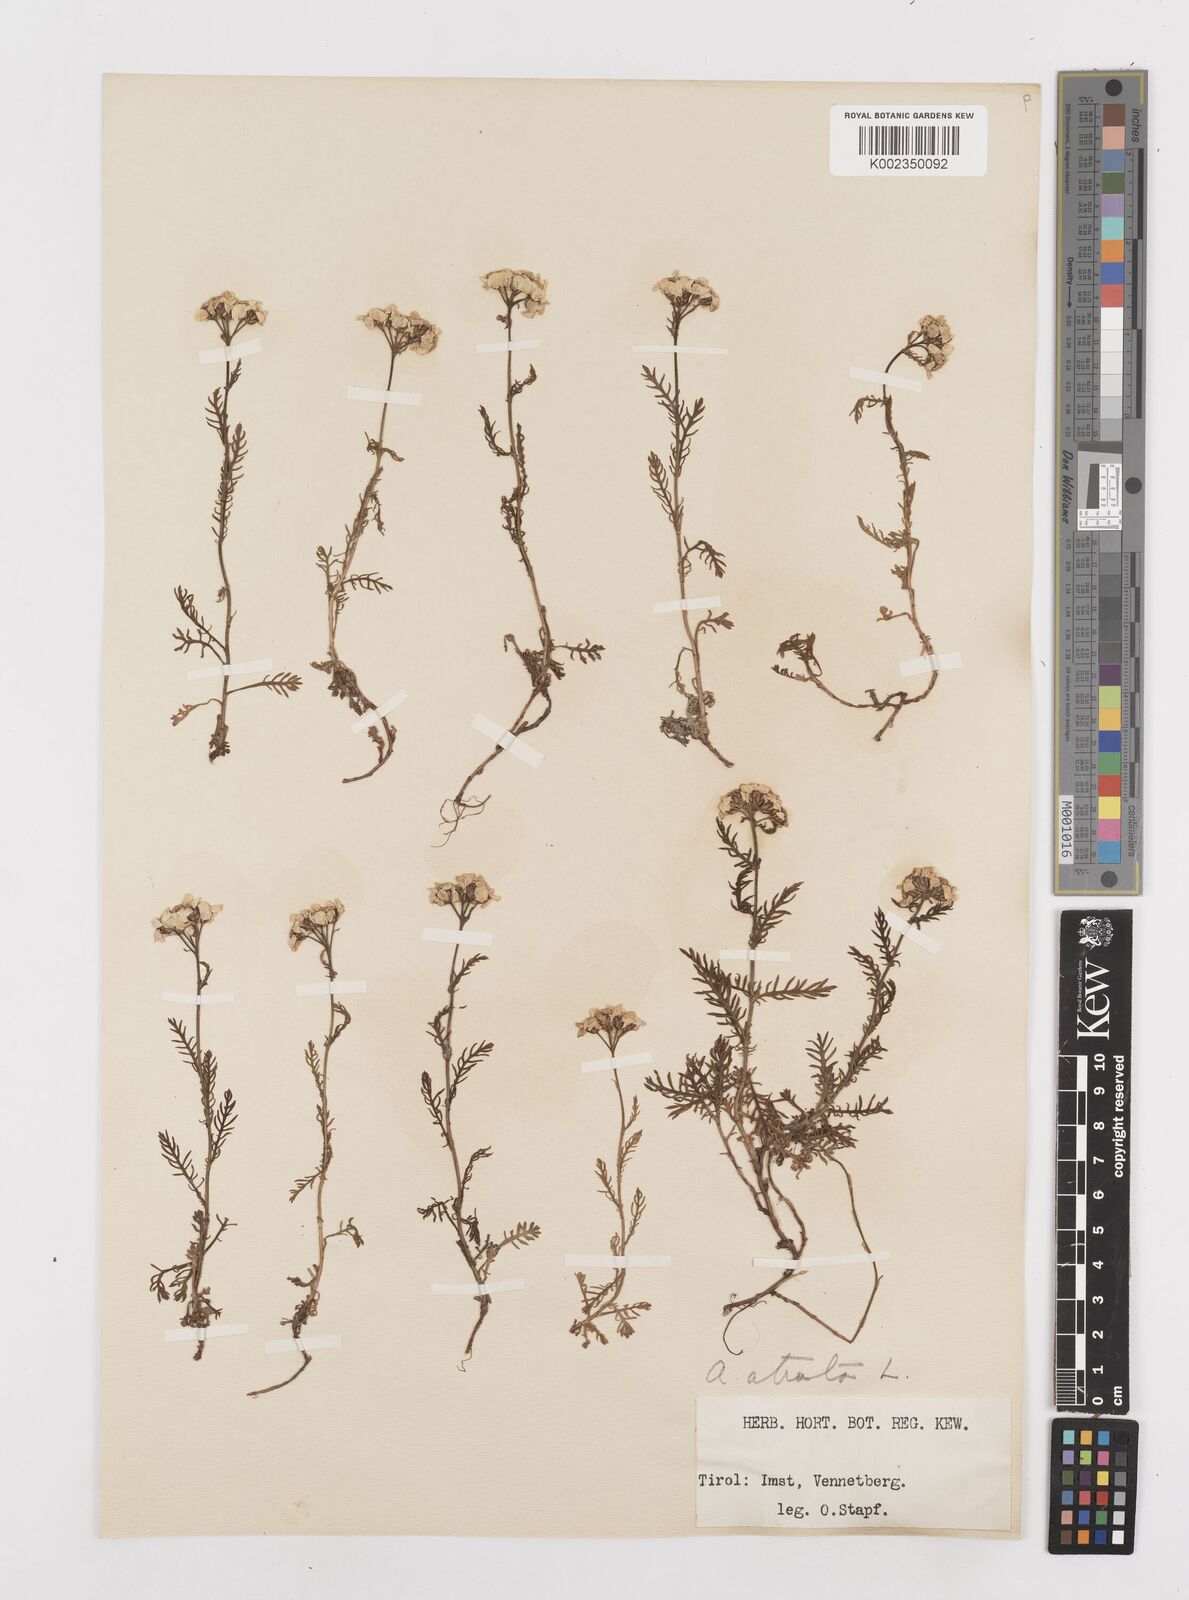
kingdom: Plantae
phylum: Tracheophyta
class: Magnoliopsida
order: Asterales
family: Asteraceae
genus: Achillea
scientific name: Achillea atrata
